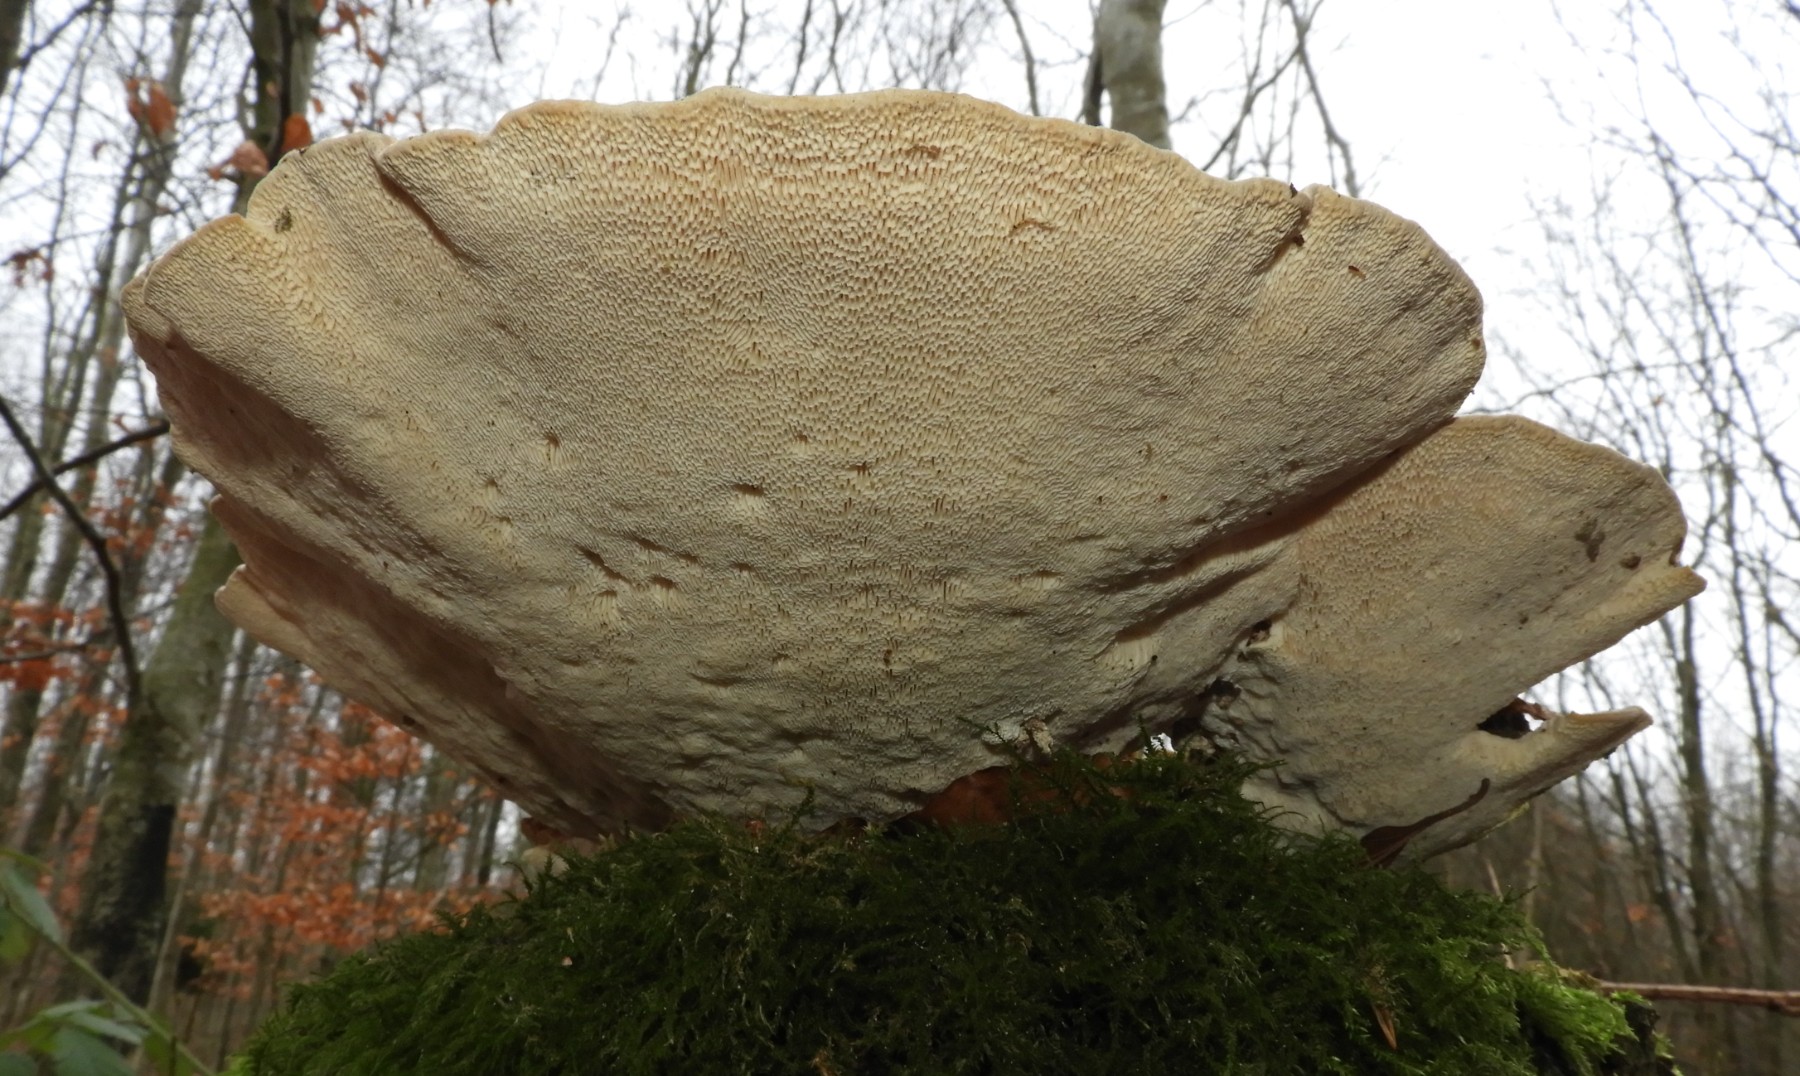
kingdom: Fungi
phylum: Basidiomycota
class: Agaricomycetes
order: Polyporales
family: Polyporaceae
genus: Trametes
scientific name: Trametes gibbosa
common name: puklet læderporesvamp
